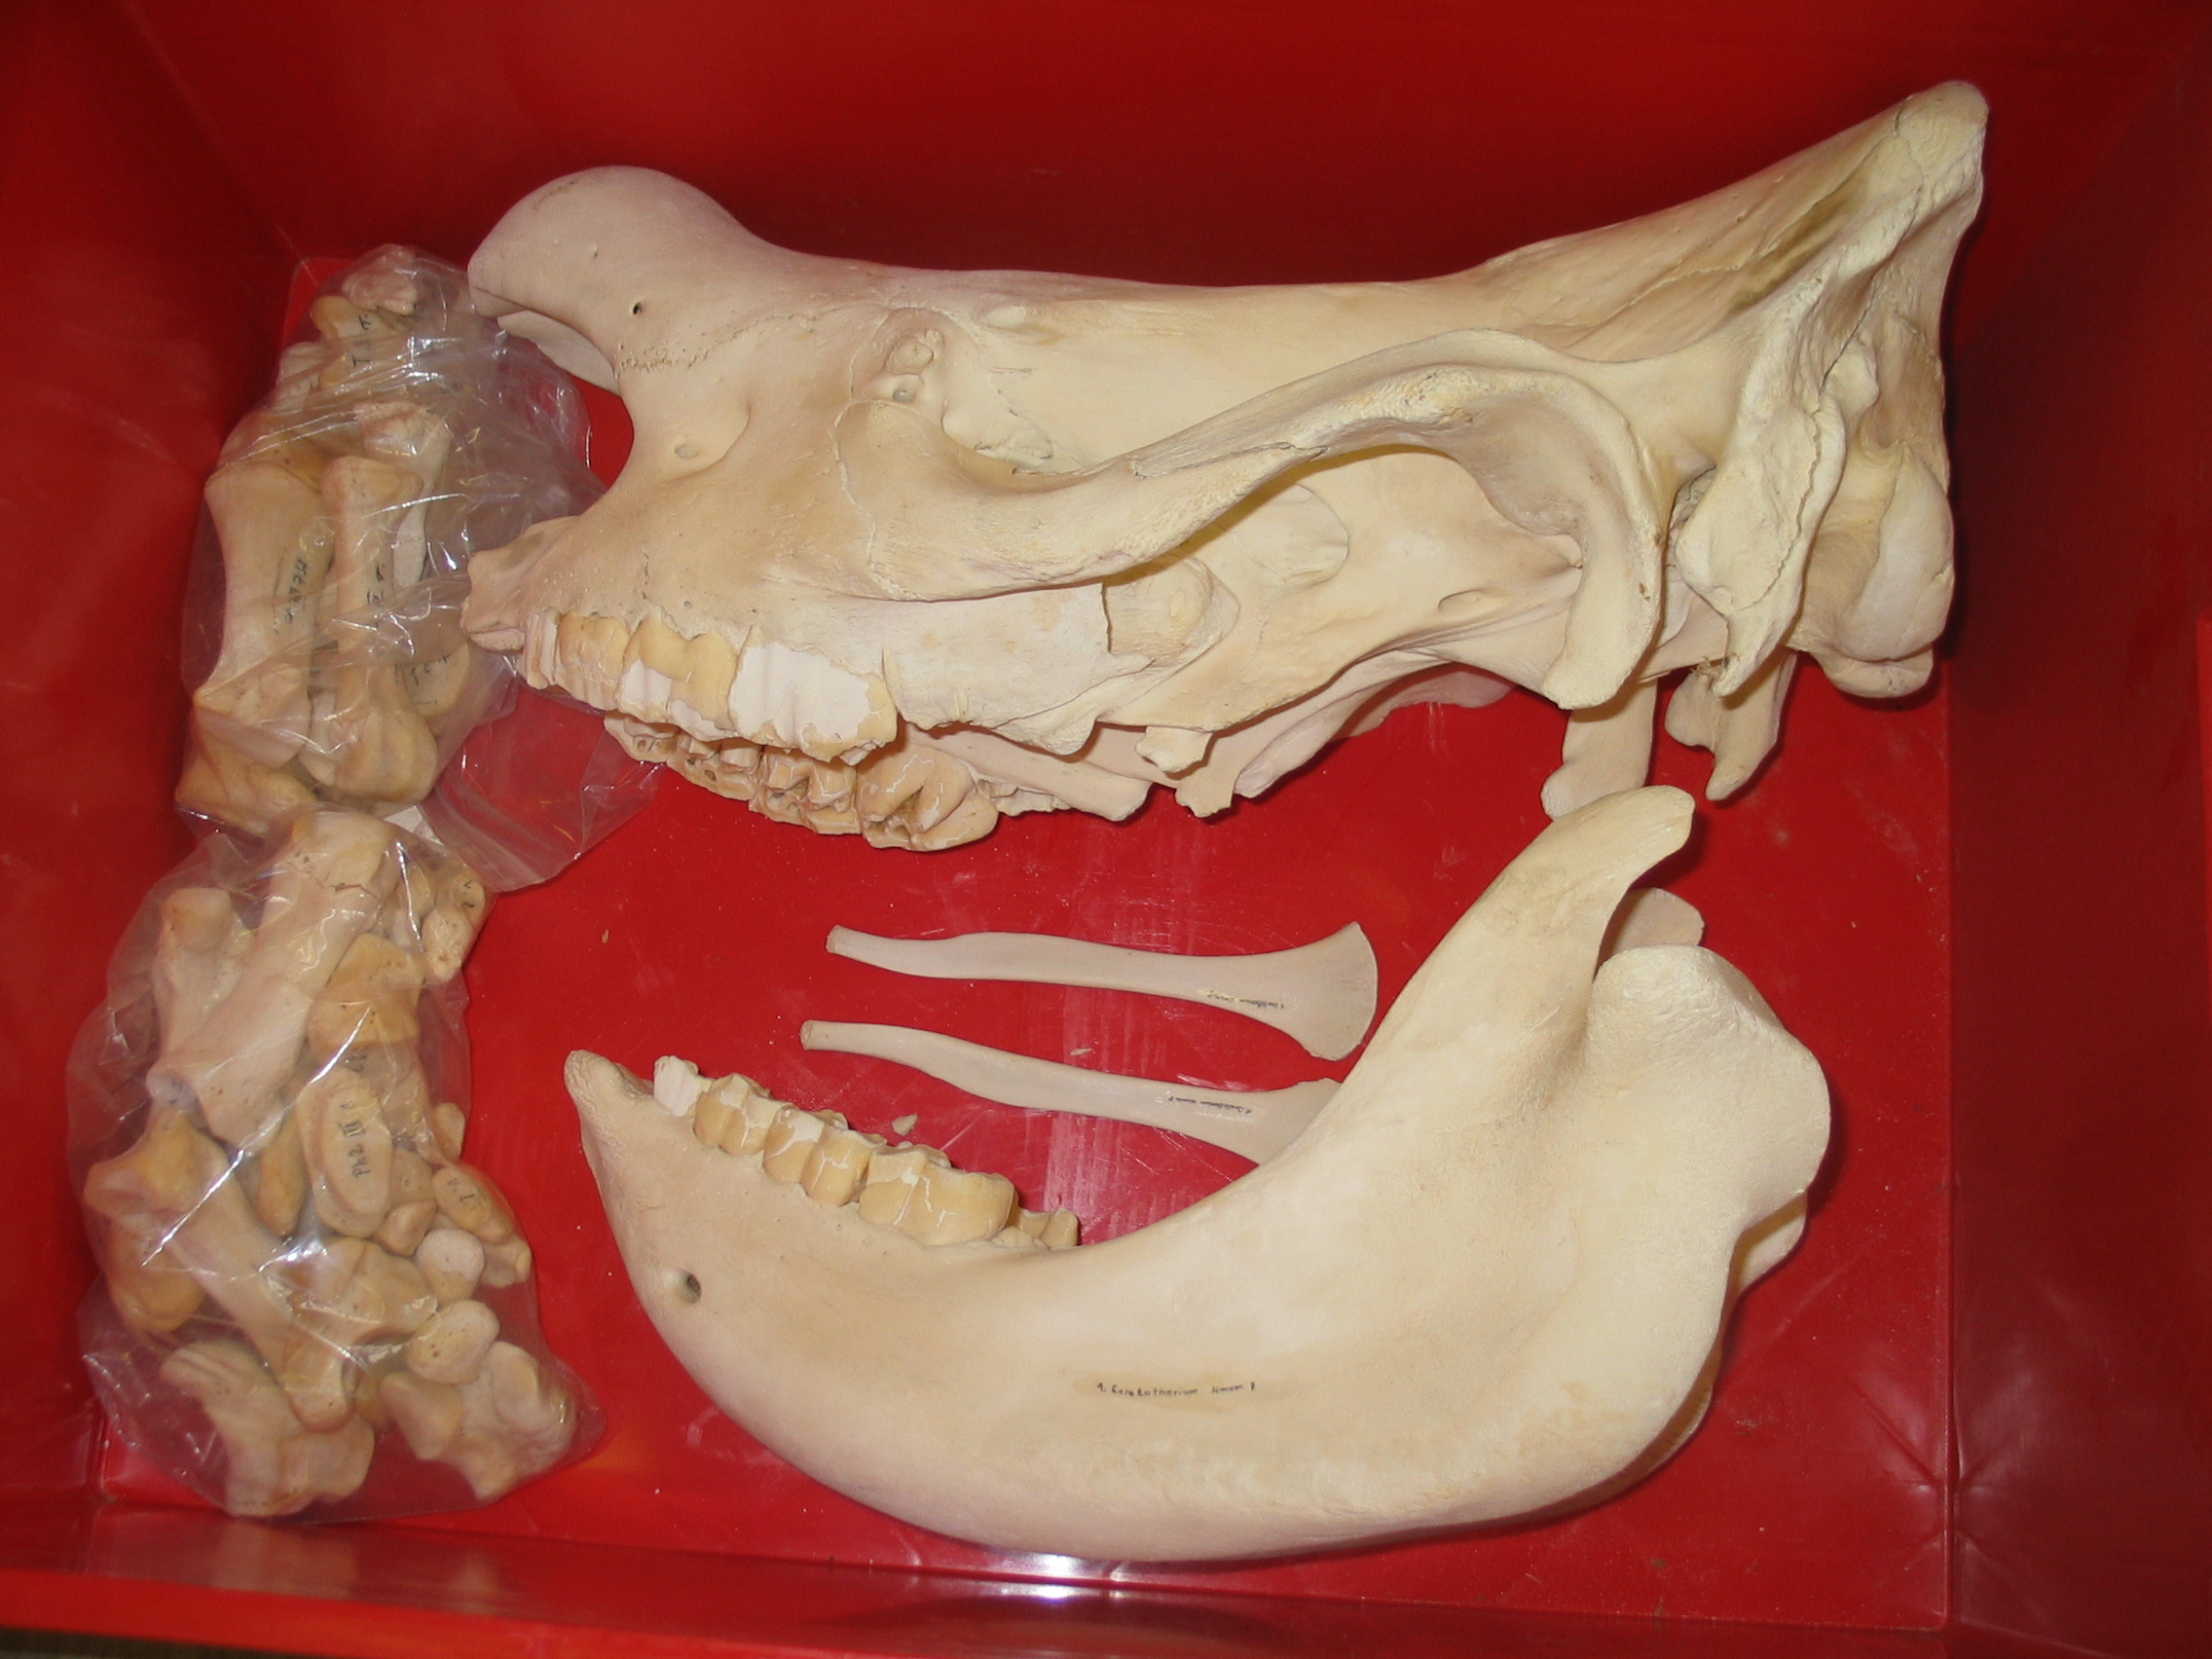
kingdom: Animalia
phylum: Chordata
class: Mammalia
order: Perissodactyla
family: Rhinocerotidae
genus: Ceratotherium
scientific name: Ceratotherium simum
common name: White rhinoceros
